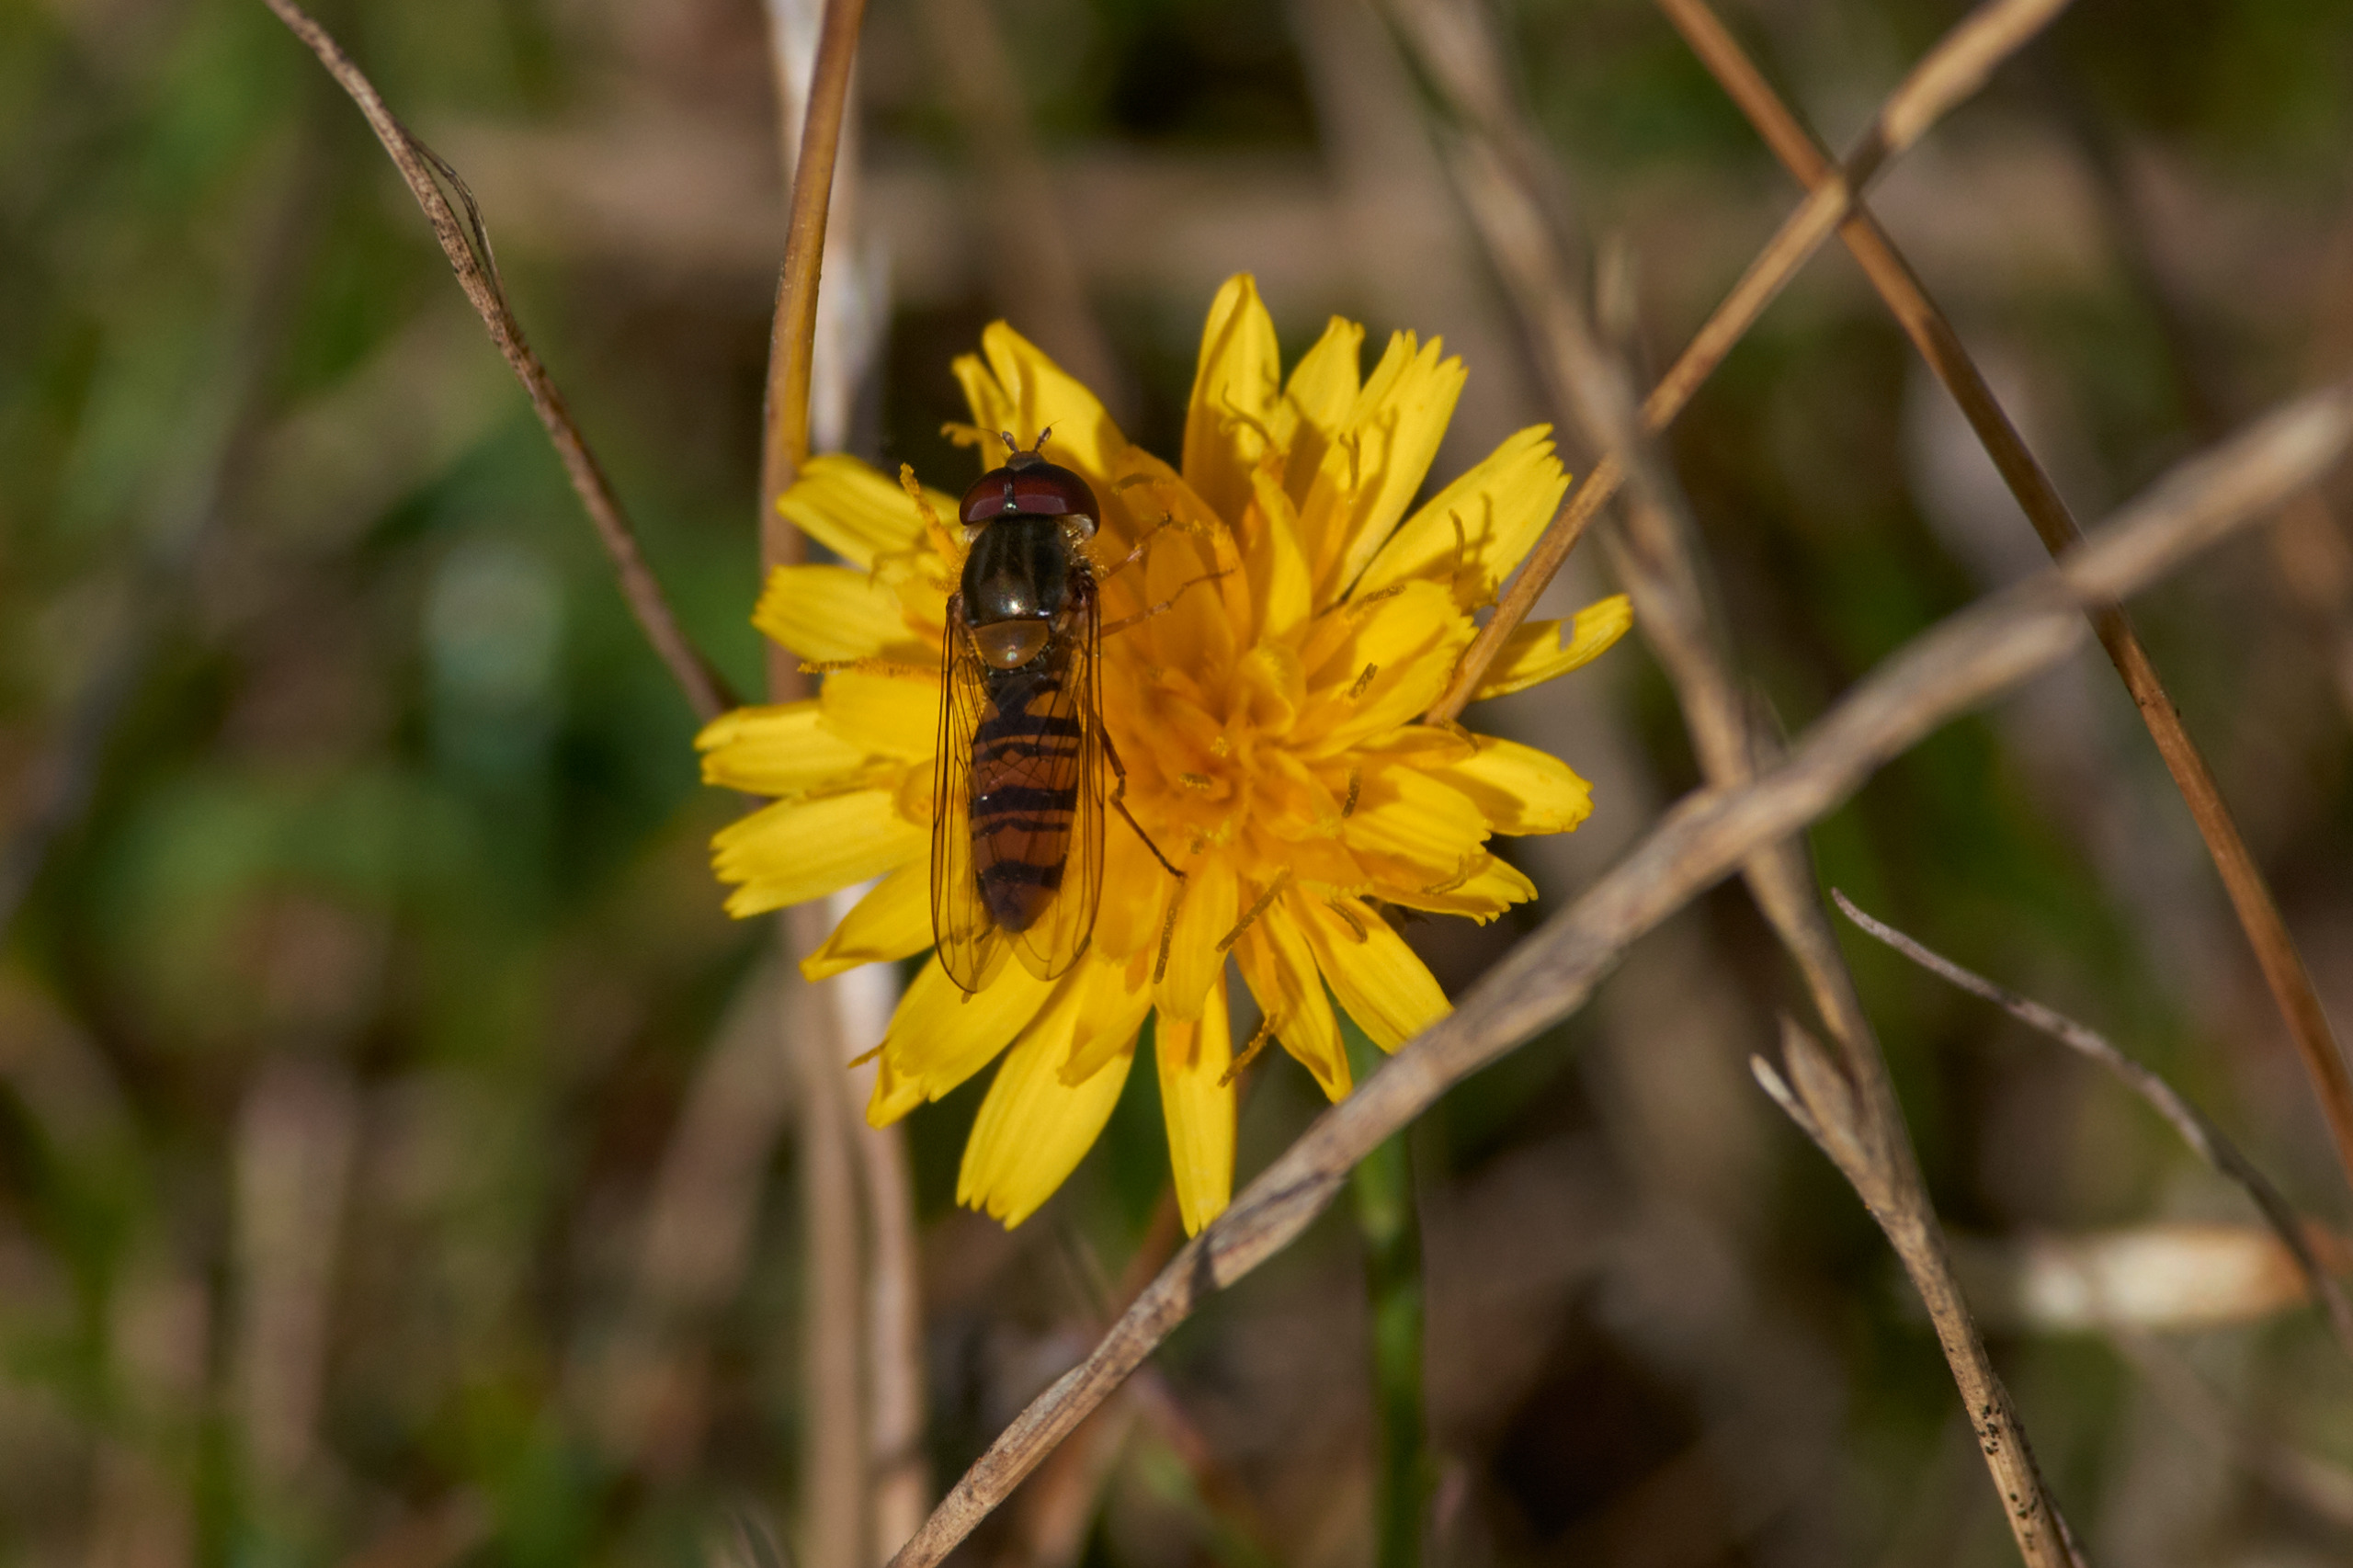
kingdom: Animalia
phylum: Arthropoda
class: Insecta
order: Diptera
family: Syrphidae
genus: Episyrphus
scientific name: Episyrphus balteatus
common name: Dobbeltbåndet svirreflue
